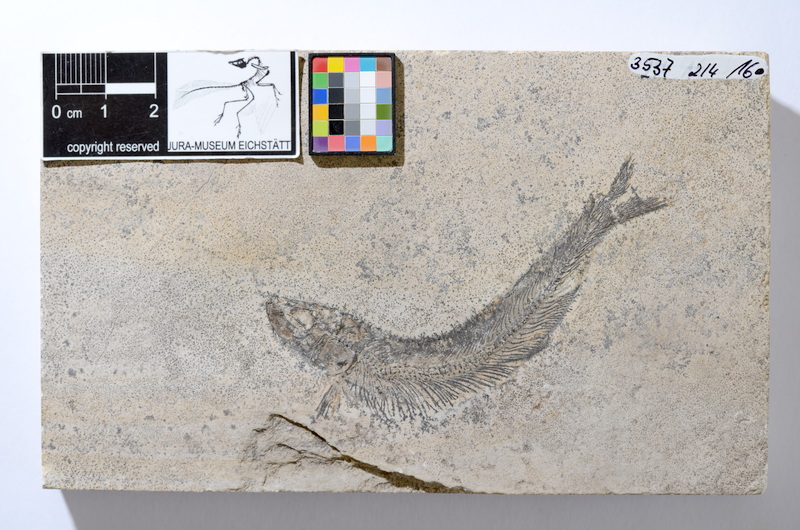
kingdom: Animalia
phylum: Chordata
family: Allothrissopidae
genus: Allothrissops
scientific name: Allothrissops mesogaster
